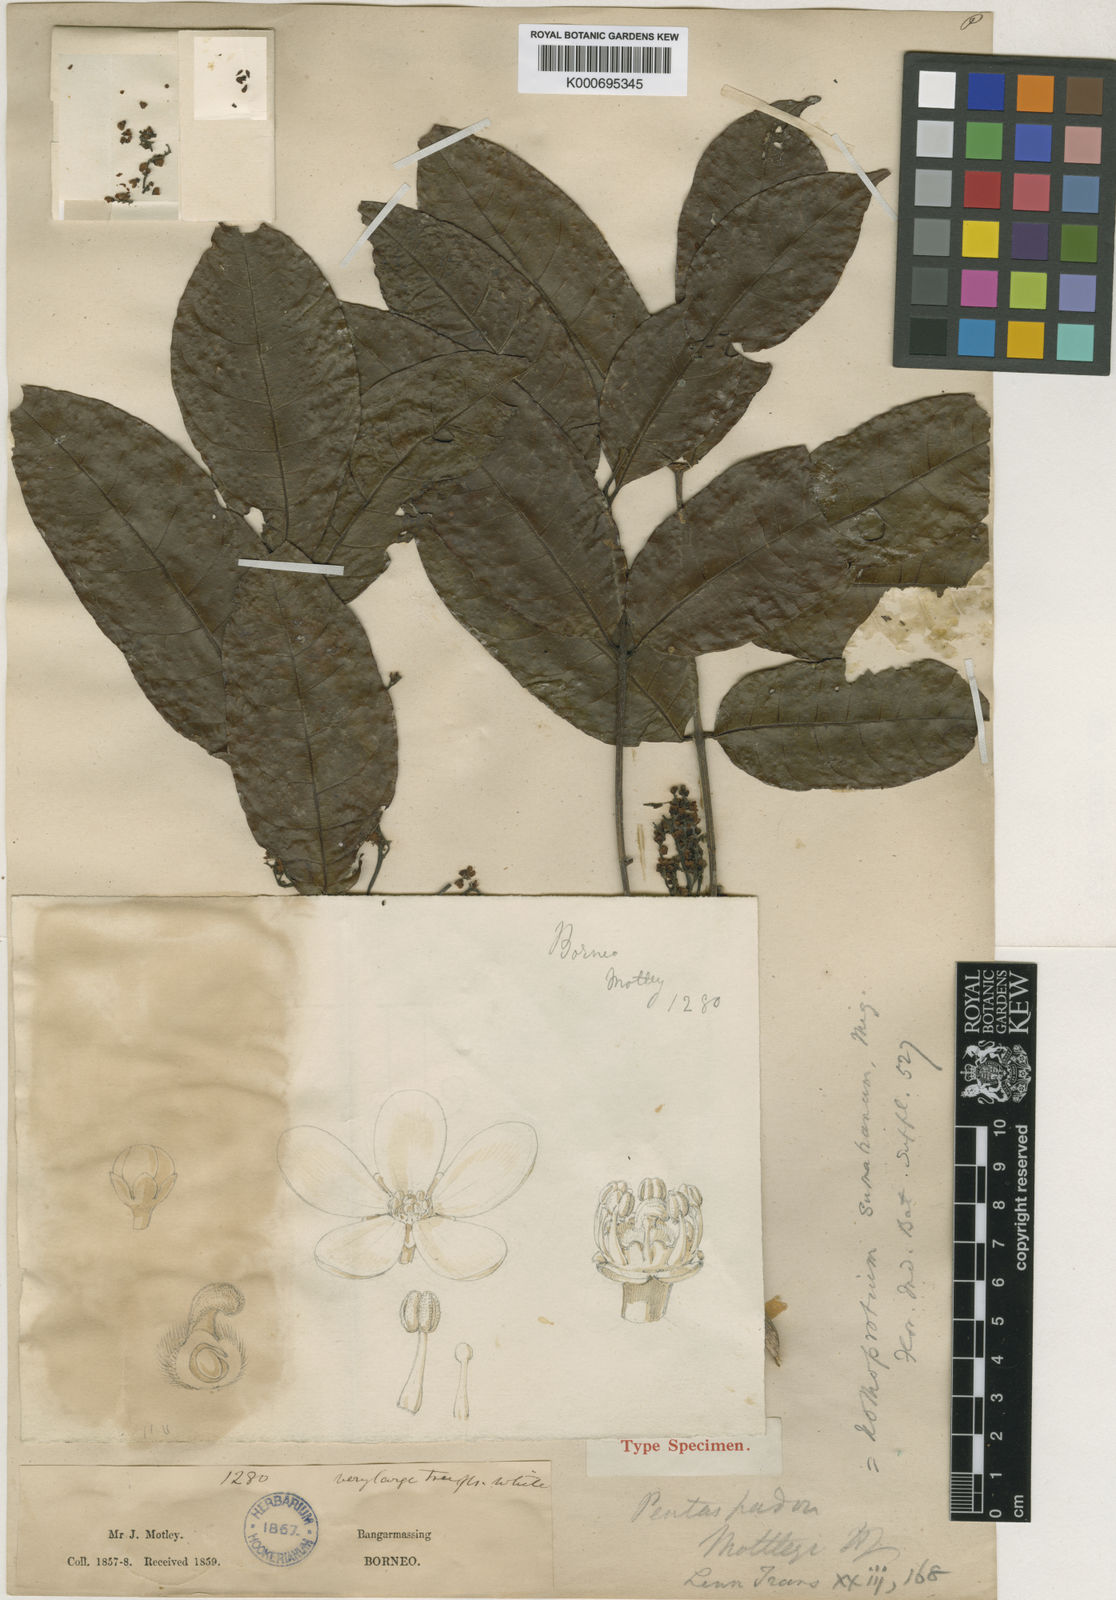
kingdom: Plantae
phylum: Tracheophyta
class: Magnoliopsida
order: Sapindales
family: Anacardiaceae
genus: Pentaspadon
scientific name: Pentaspadon motleyi
